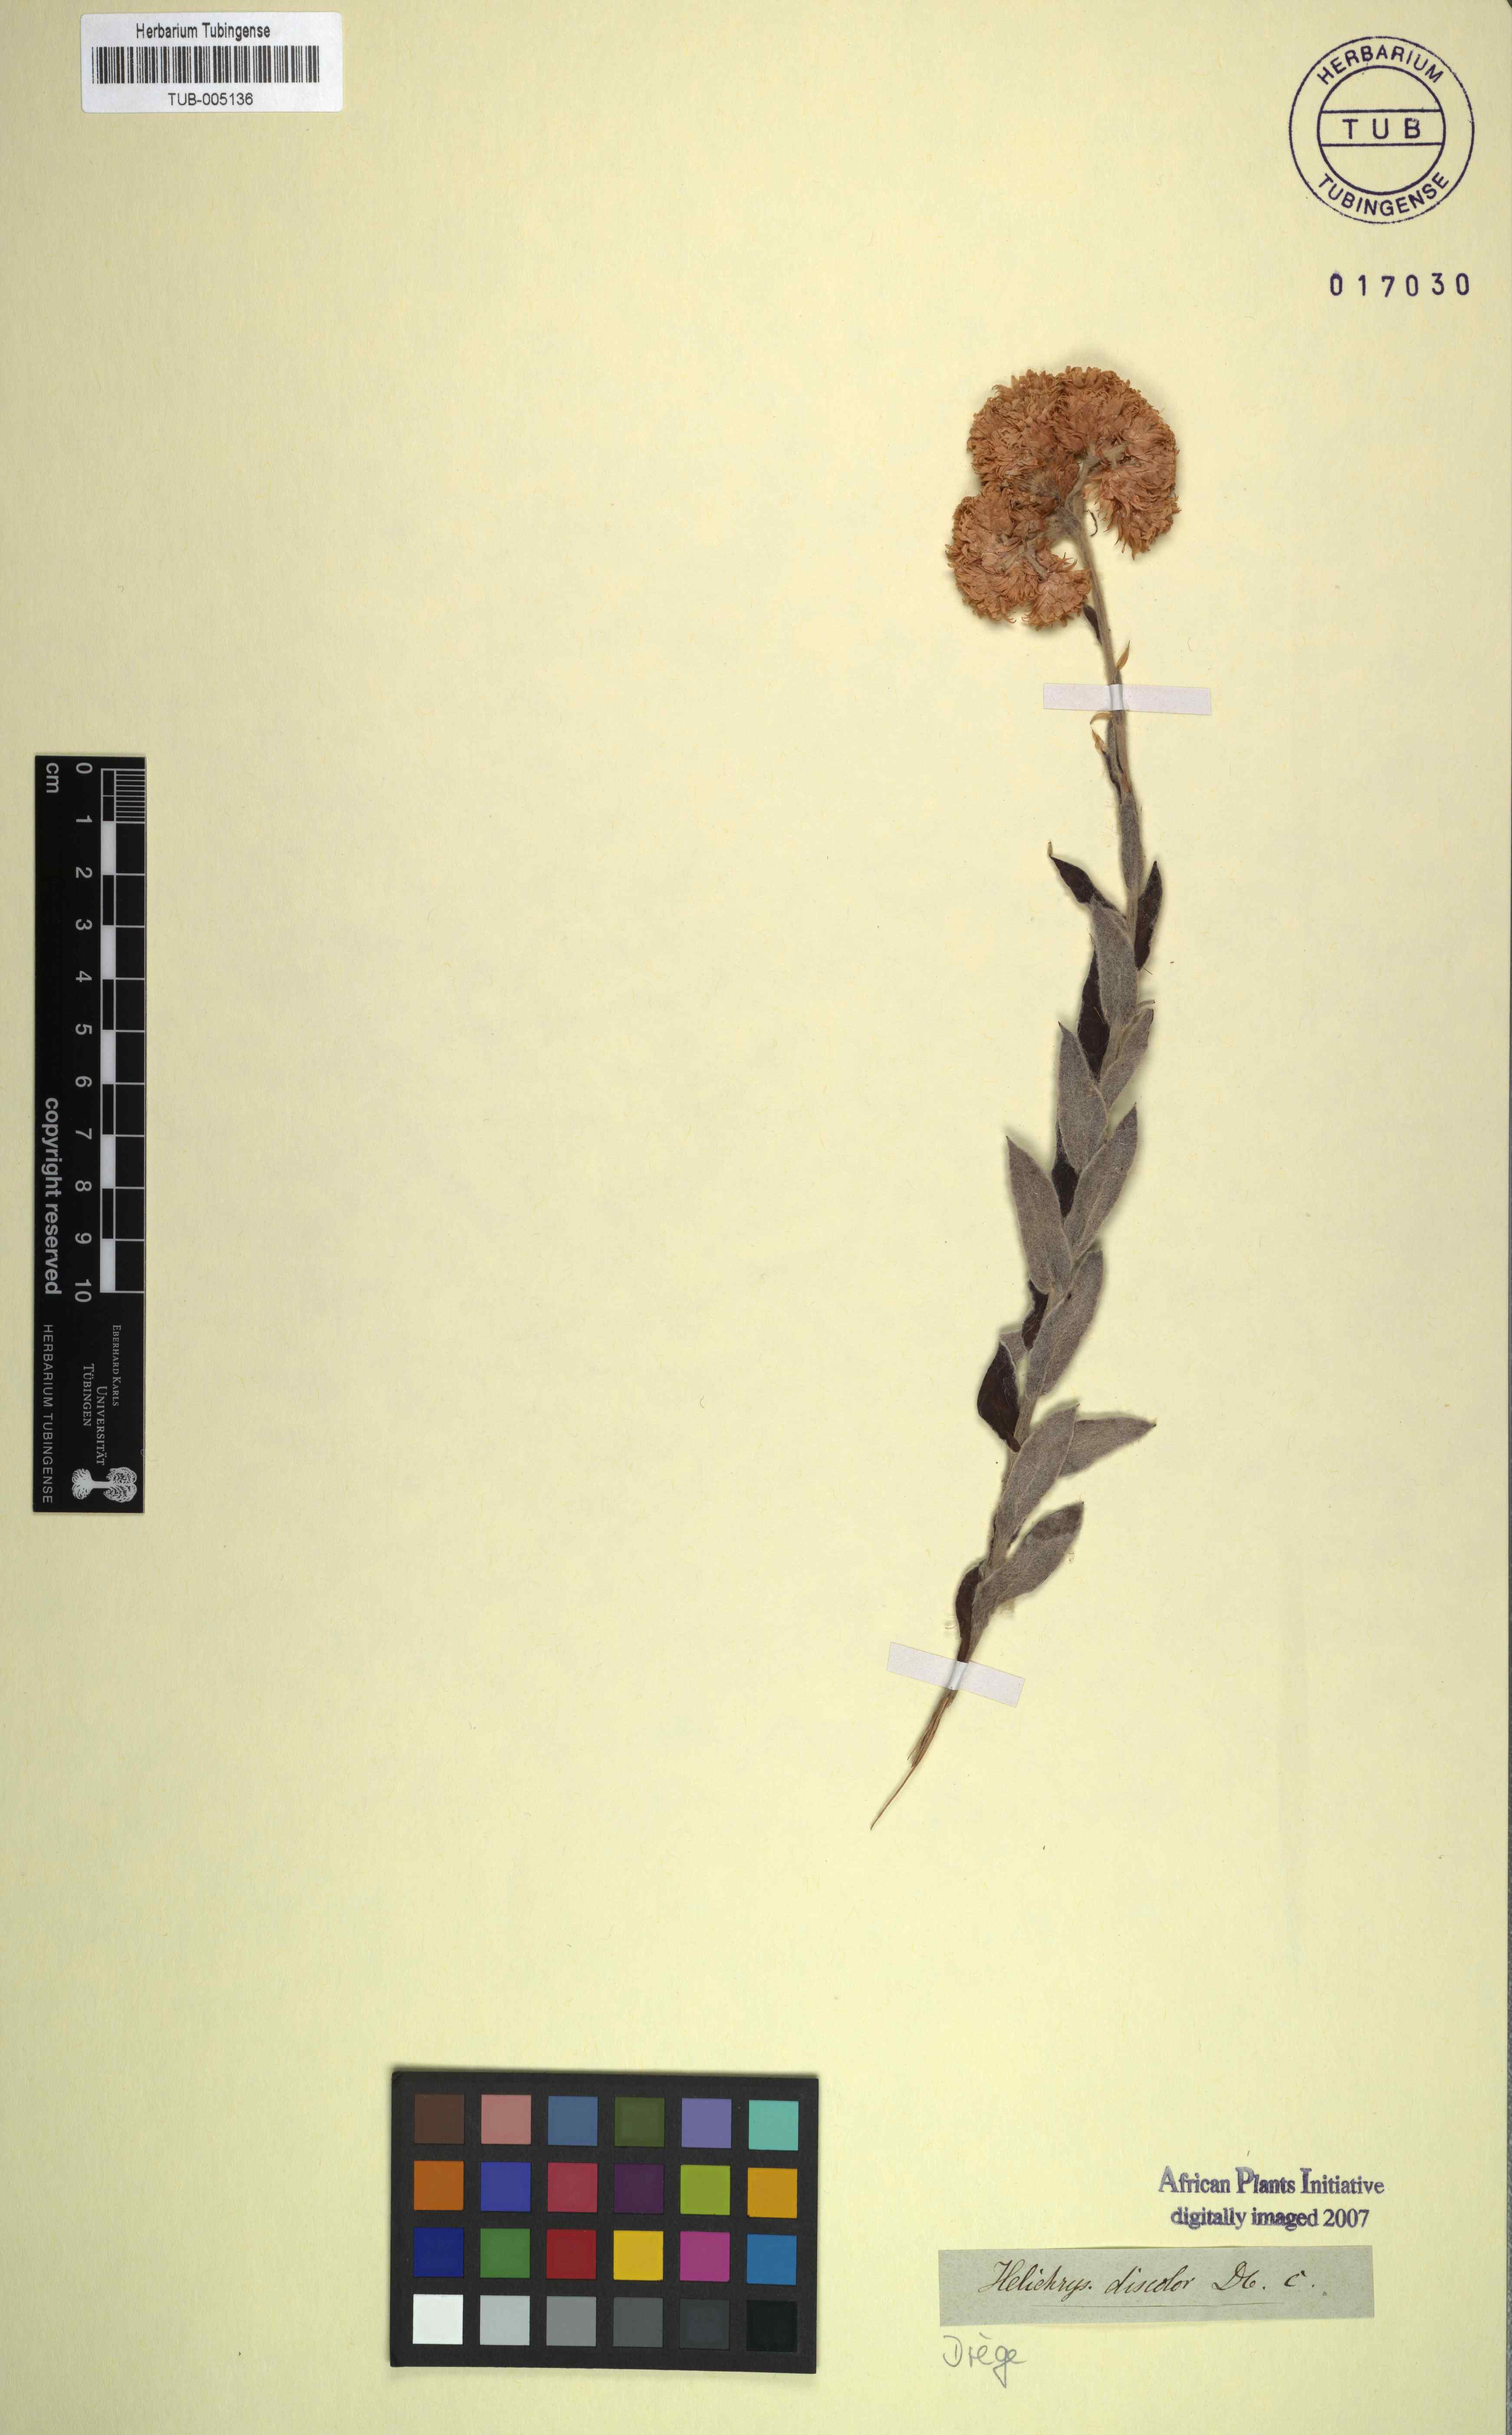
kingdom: Plantae
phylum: Tracheophyta
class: Magnoliopsida
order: Asterales
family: Asteraceae
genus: Helichrysum
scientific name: Helichrysum appendiculatum
